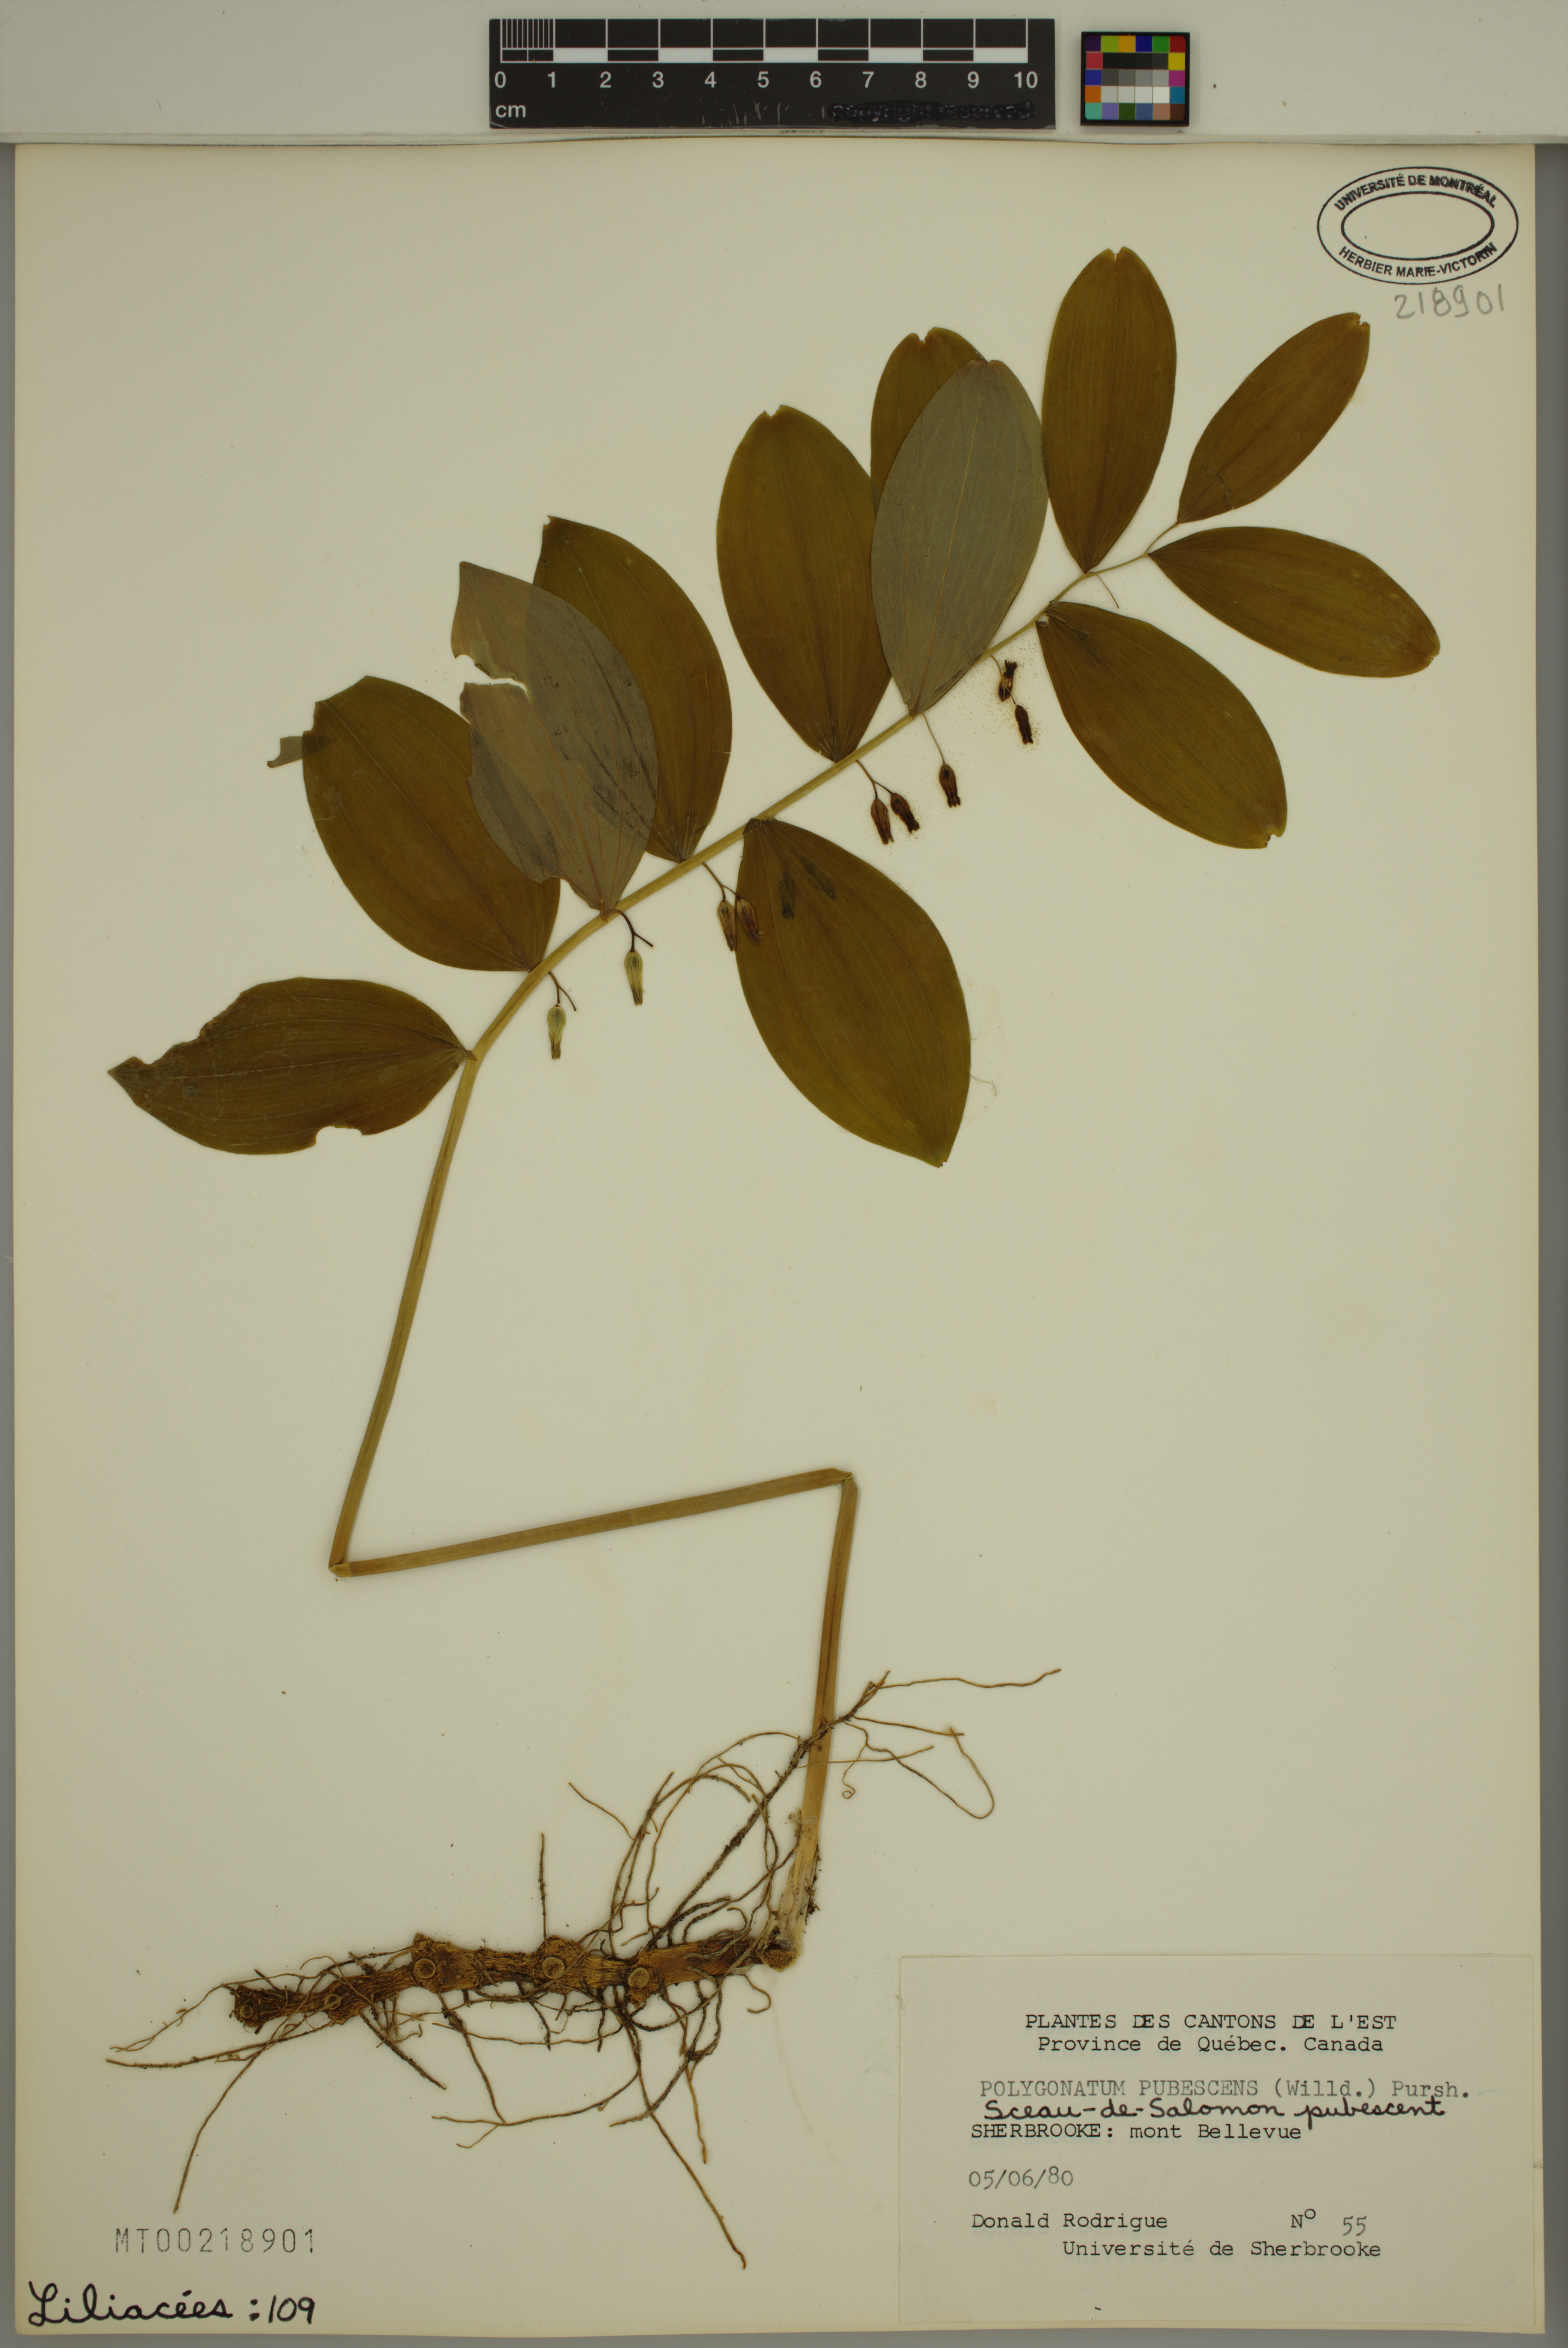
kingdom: Plantae
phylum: Tracheophyta
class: Liliopsida
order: Asparagales
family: Asparagaceae
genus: Polygonatum
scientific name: Polygonatum pubescens
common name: Downy solomon's seal
